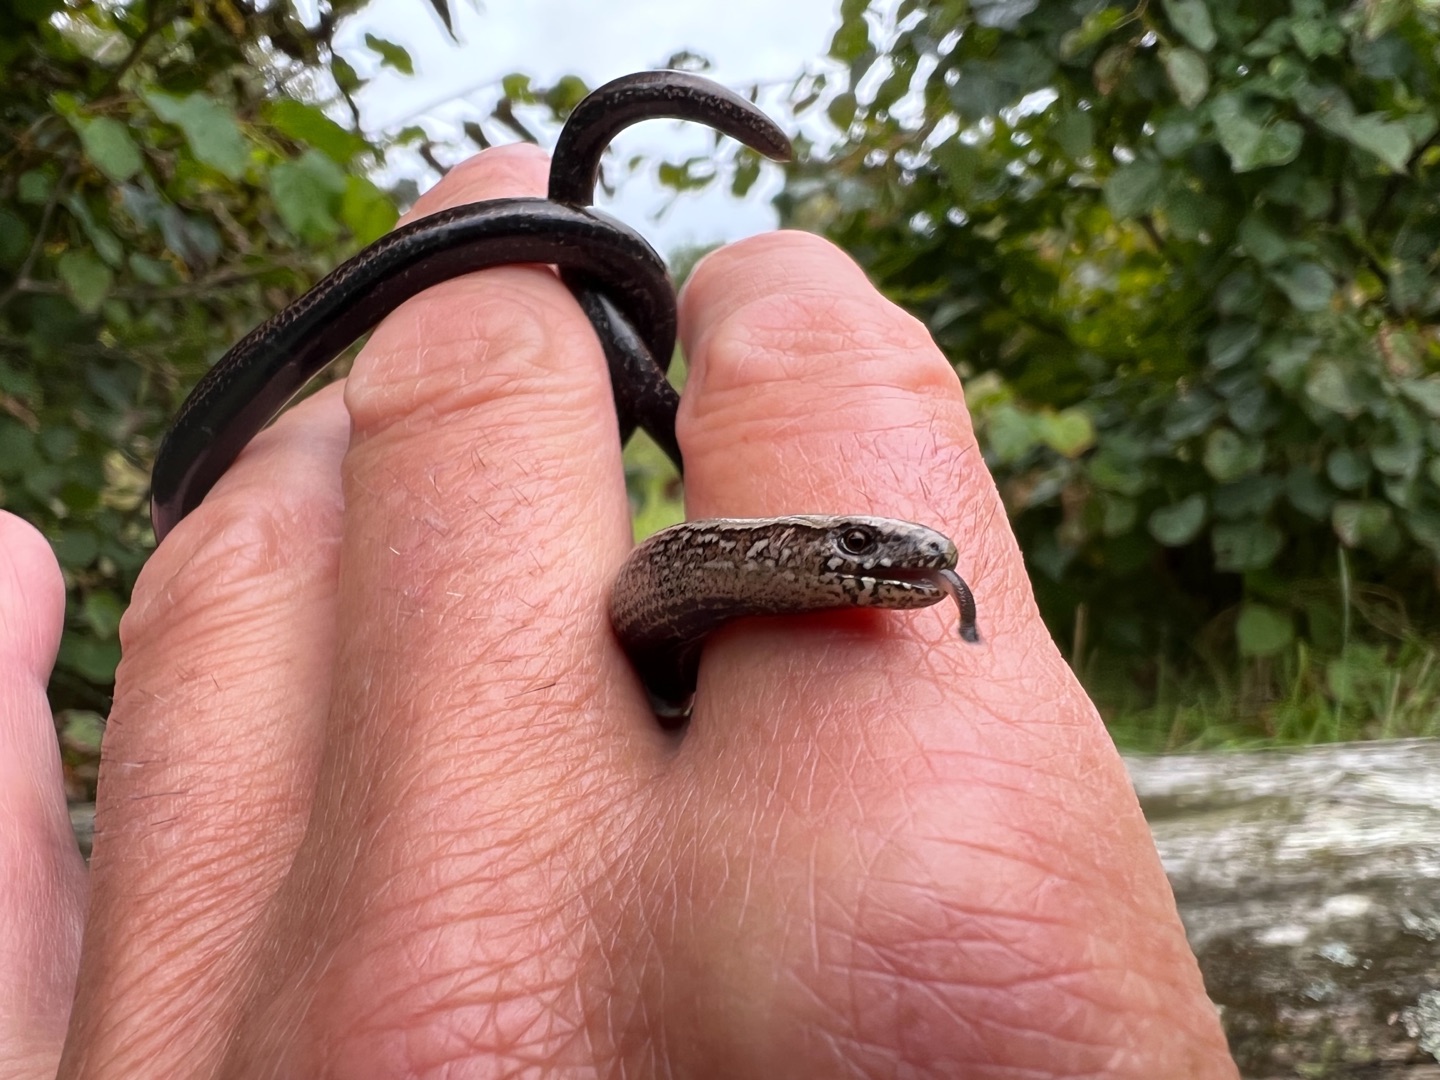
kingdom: Animalia
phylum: Chordata
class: Squamata
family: Anguidae
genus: Anguis
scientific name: Anguis fragilis
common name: Stålorm
